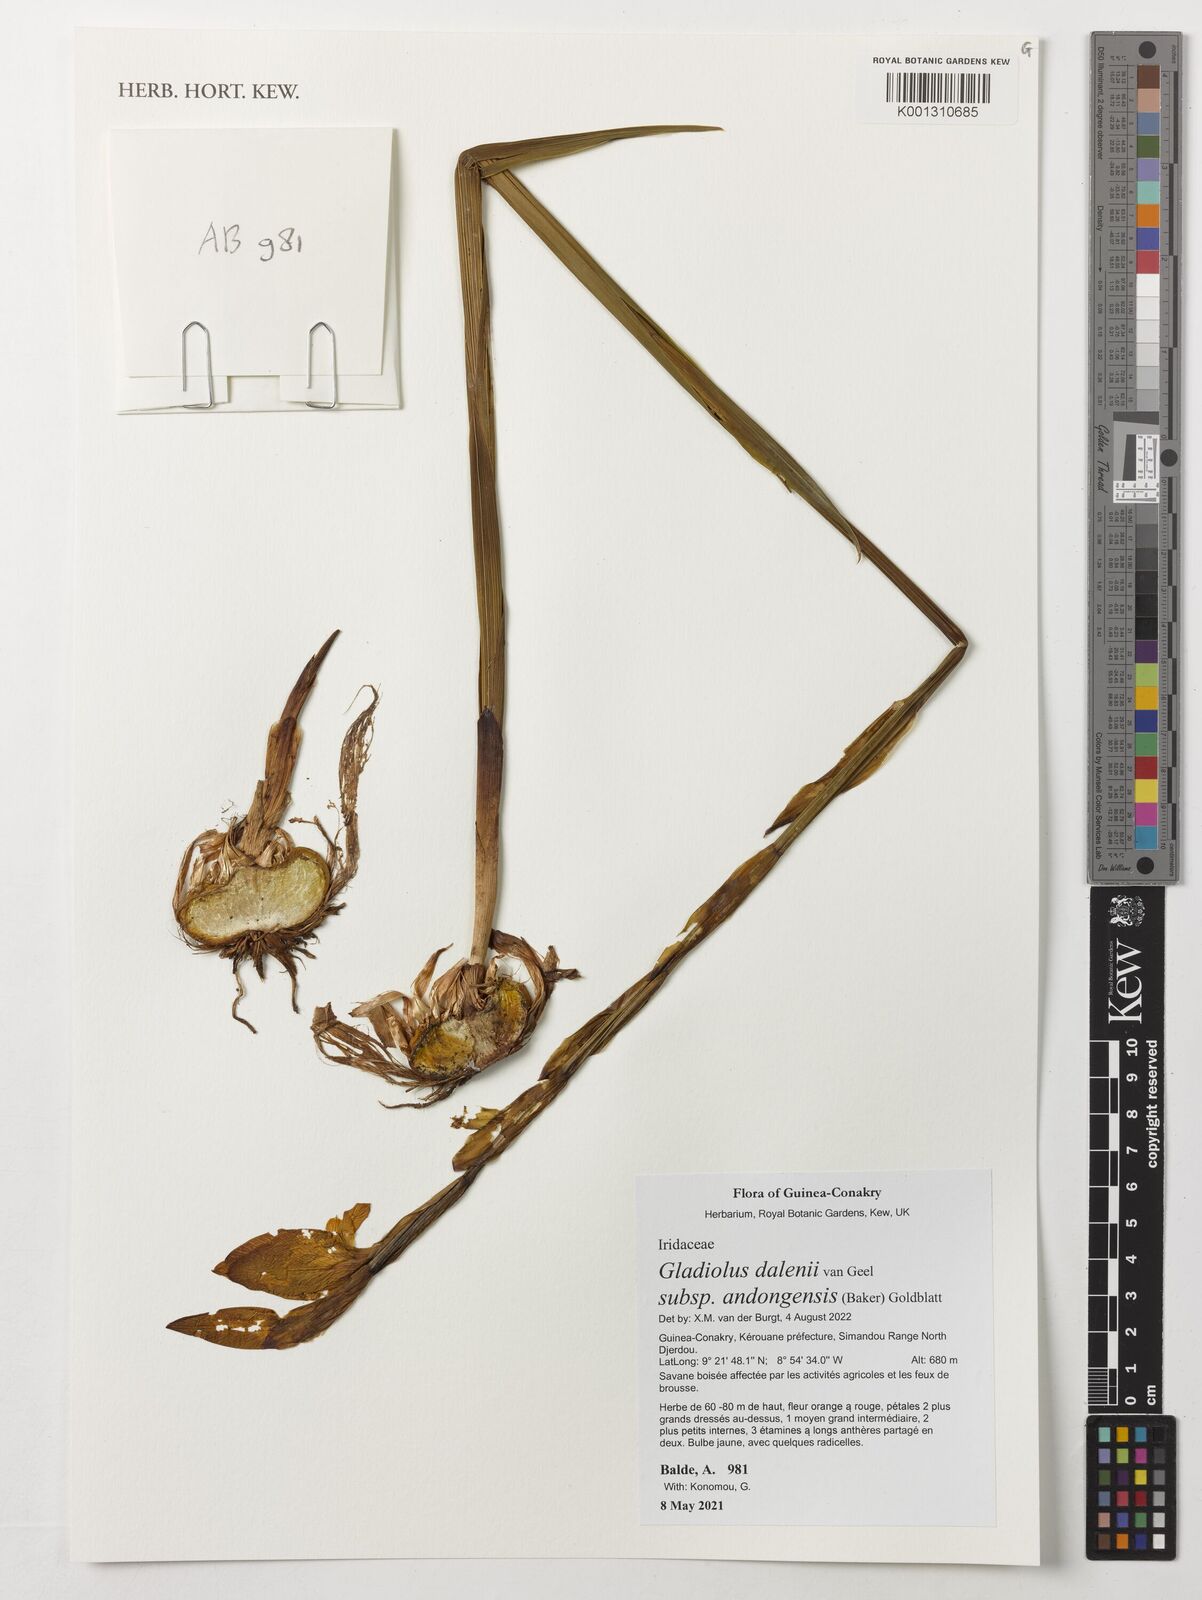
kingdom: Plantae
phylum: Tracheophyta
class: Liliopsida
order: Asparagales
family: Iridaceae
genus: Gladiolus
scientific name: Gladiolus dalenii
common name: Cornflag
